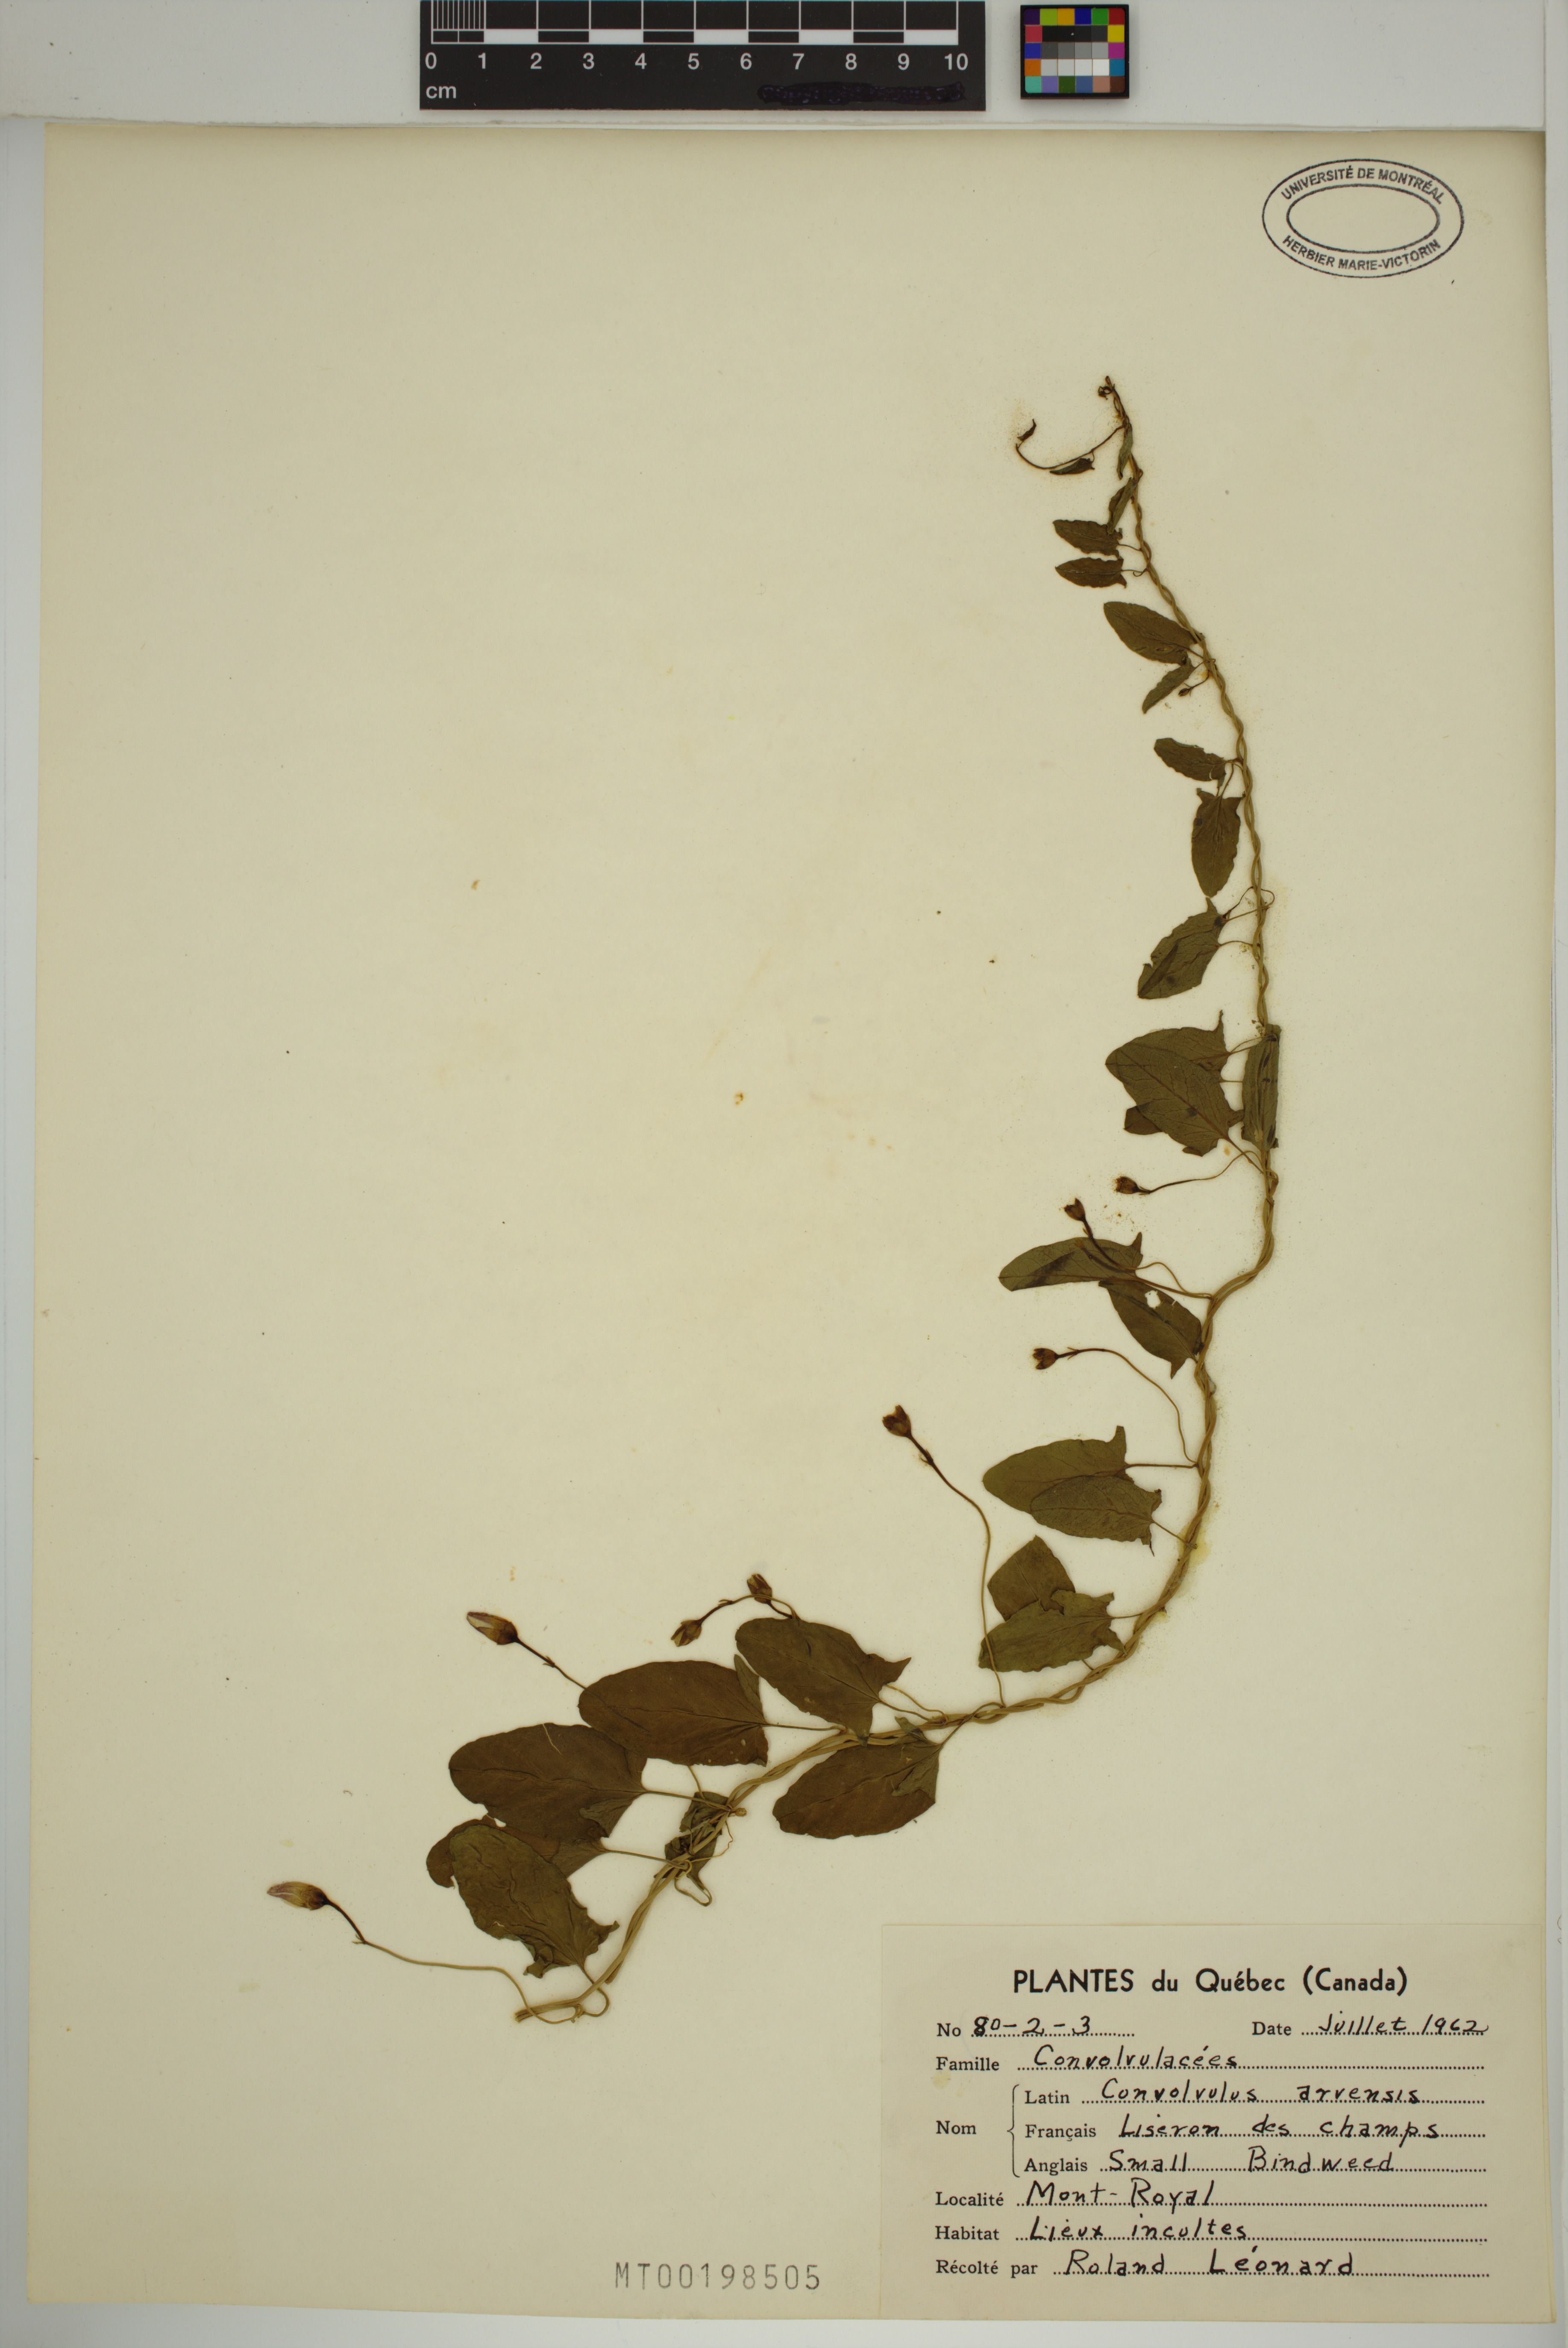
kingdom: Plantae
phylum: Tracheophyta
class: Magnoliopsida
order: Solanales
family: Convolvulaceae
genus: Convolvulus
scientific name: Convolvulus arvensis
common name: Field bindweed
